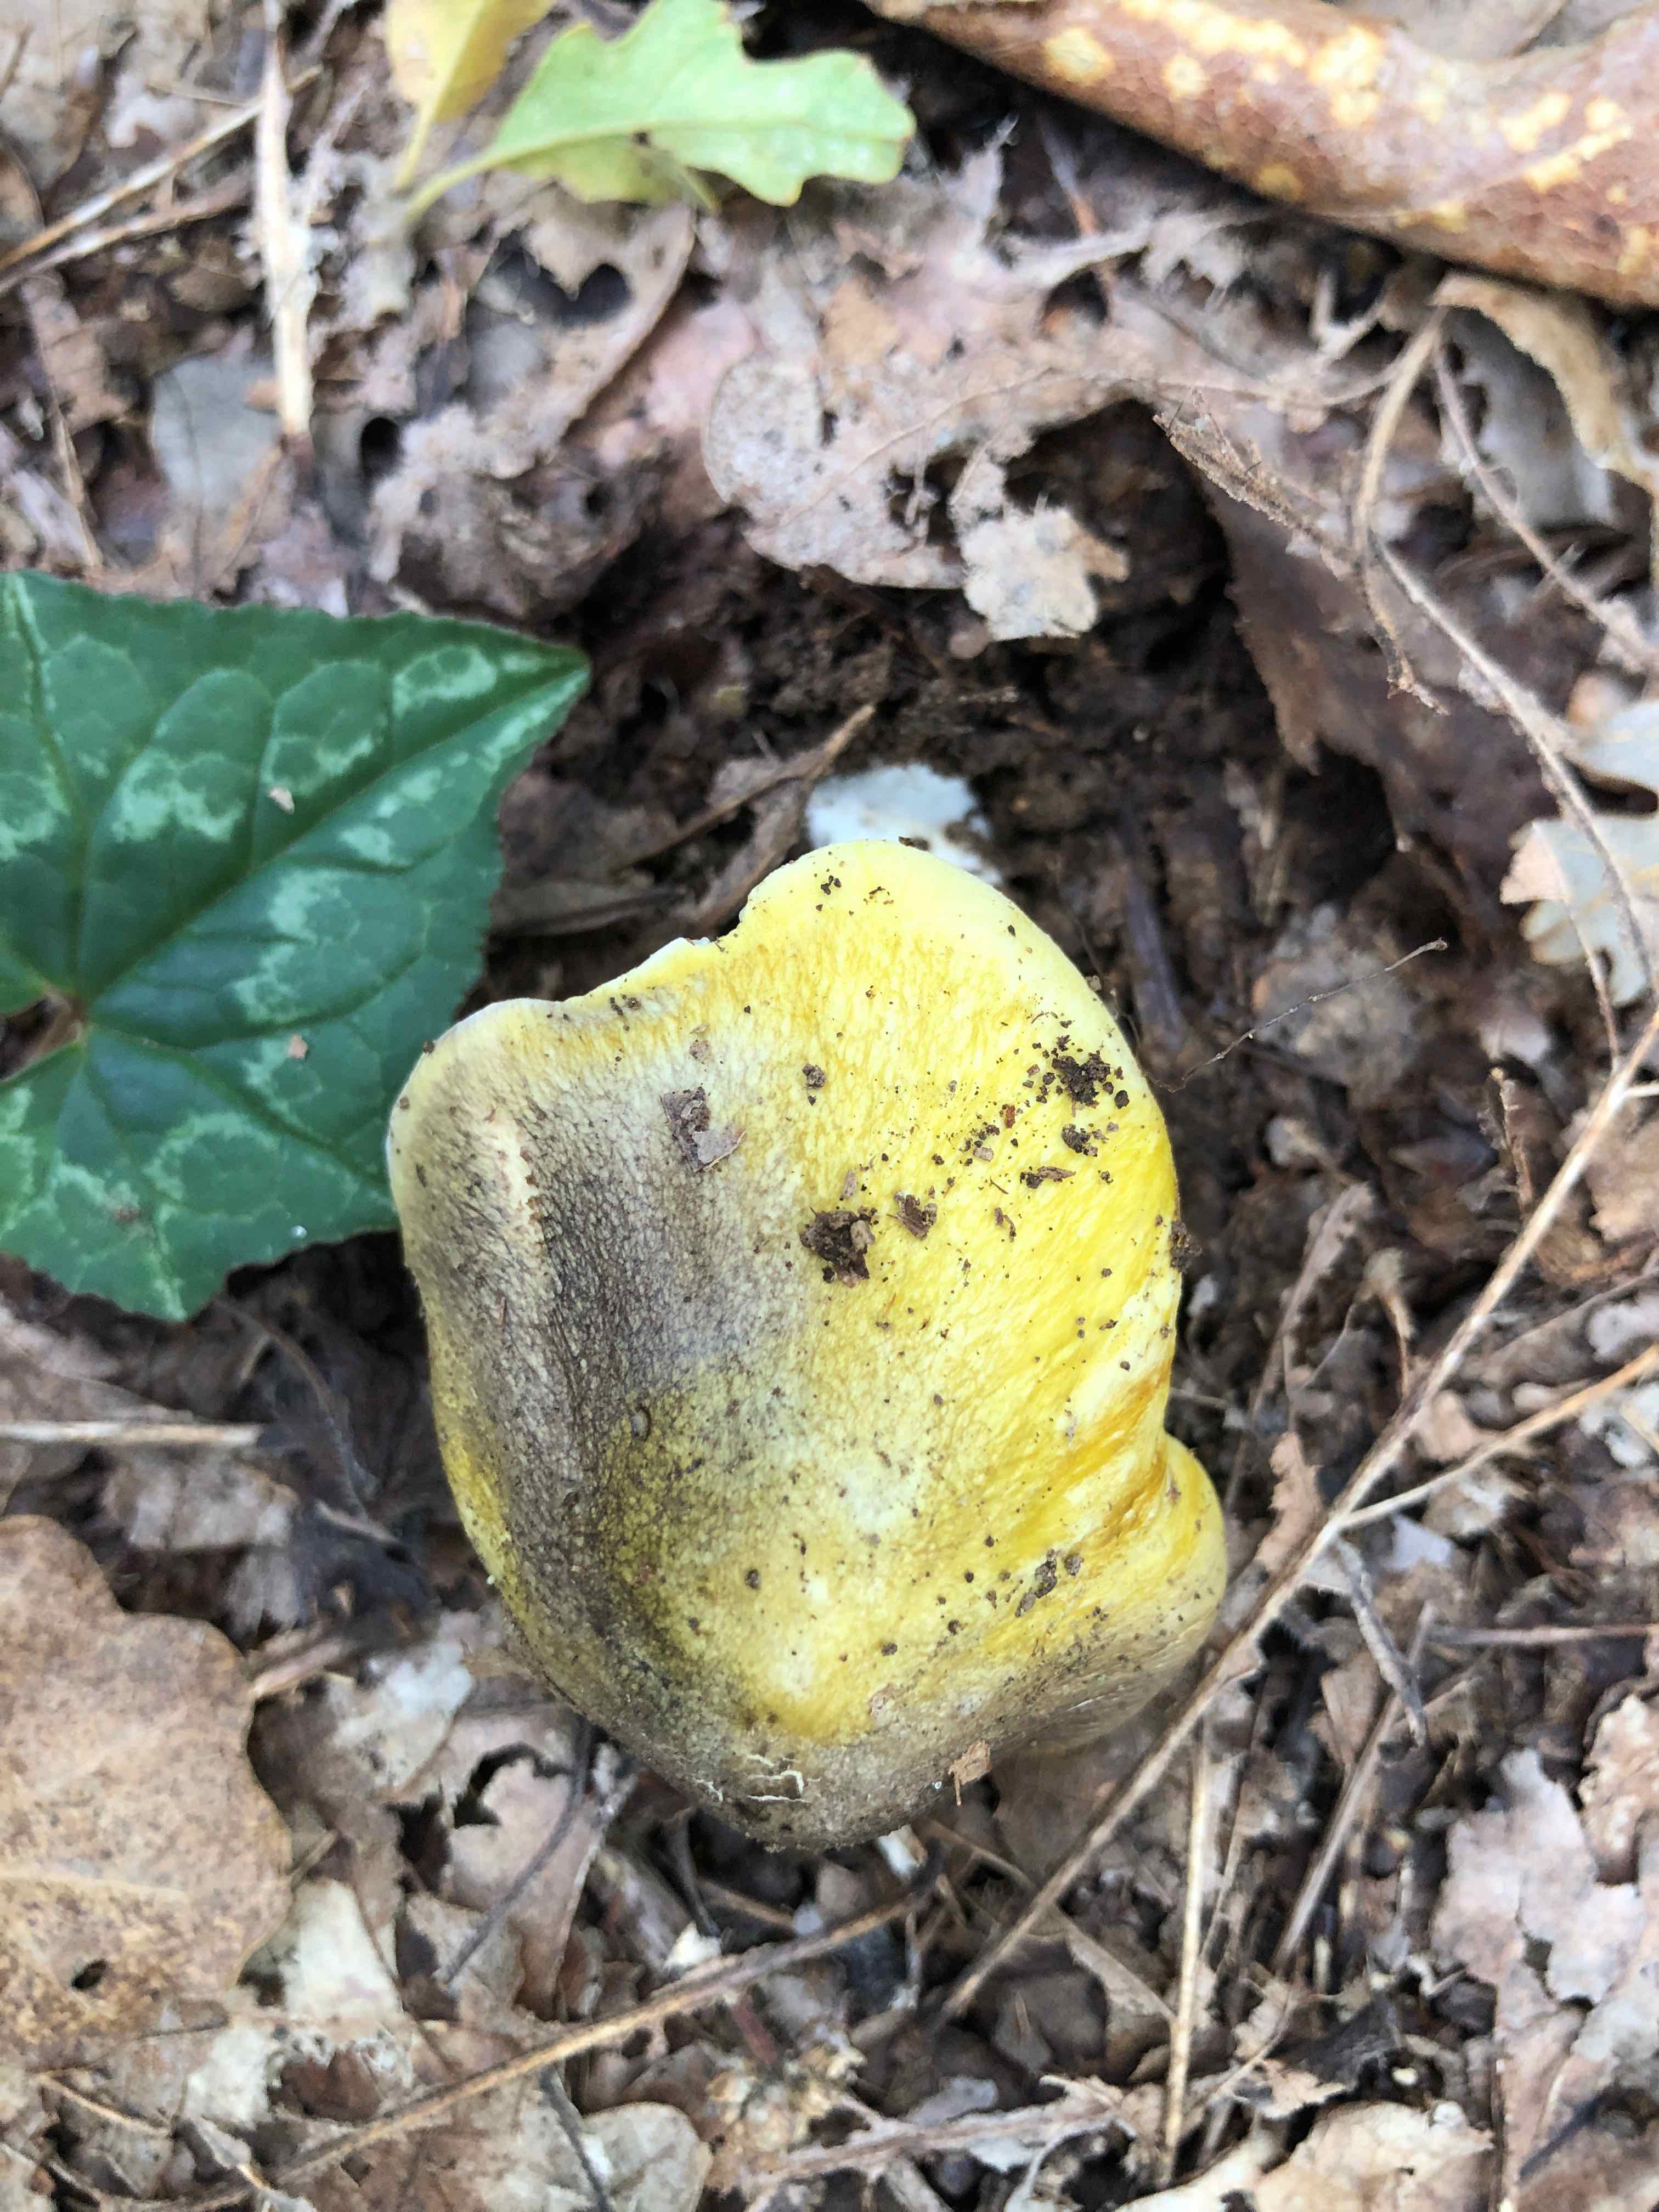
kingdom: Fungi
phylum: Basidiomycota
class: Agaricomycetes
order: Agaricales
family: Tricholomataceae
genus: Tricholoma
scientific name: Tricholoma sejunctum
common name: grøngul ridderhat
